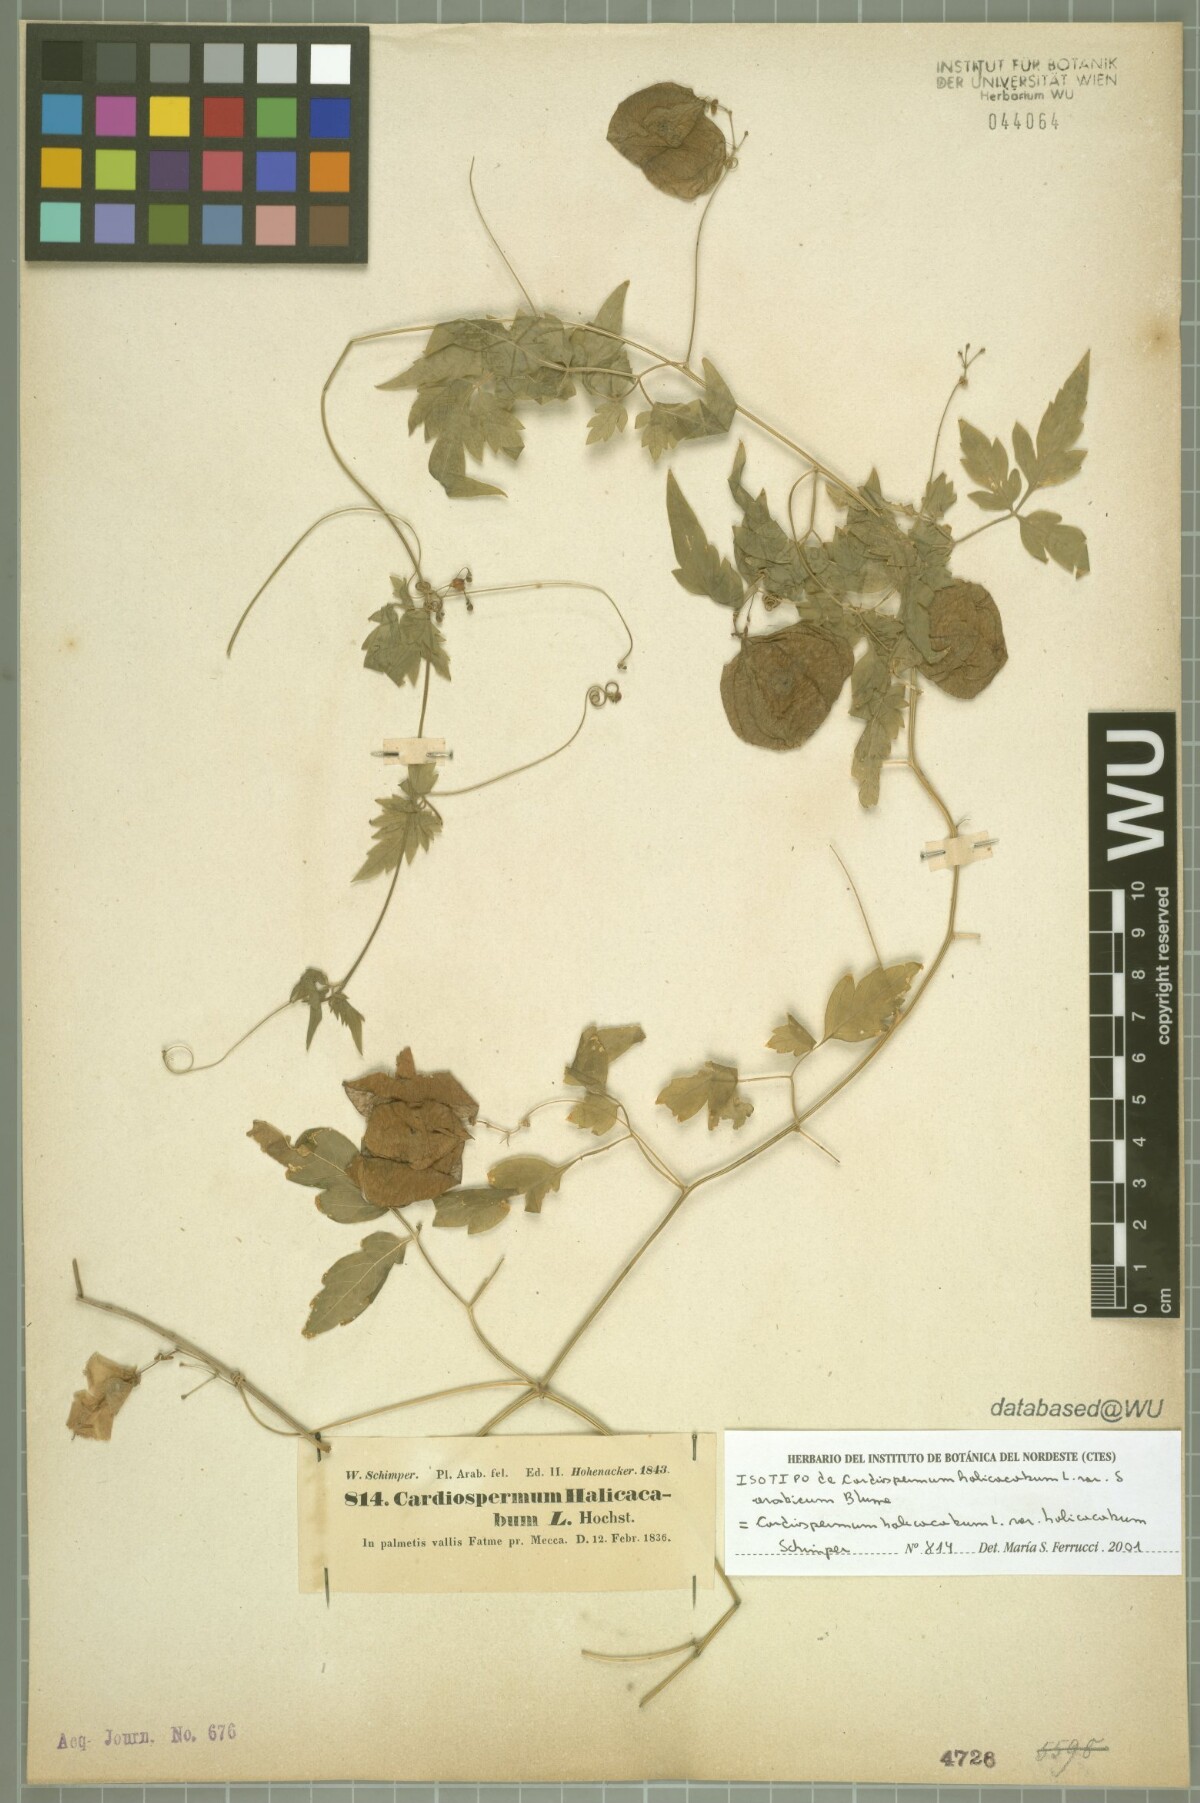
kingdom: Plantae
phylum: Tracheophyta
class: Magnoliopsida
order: Sapindales
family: Sapindaceae
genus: Cardiospermum
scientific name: Cardiospermum halicacabum
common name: Balloon vine
